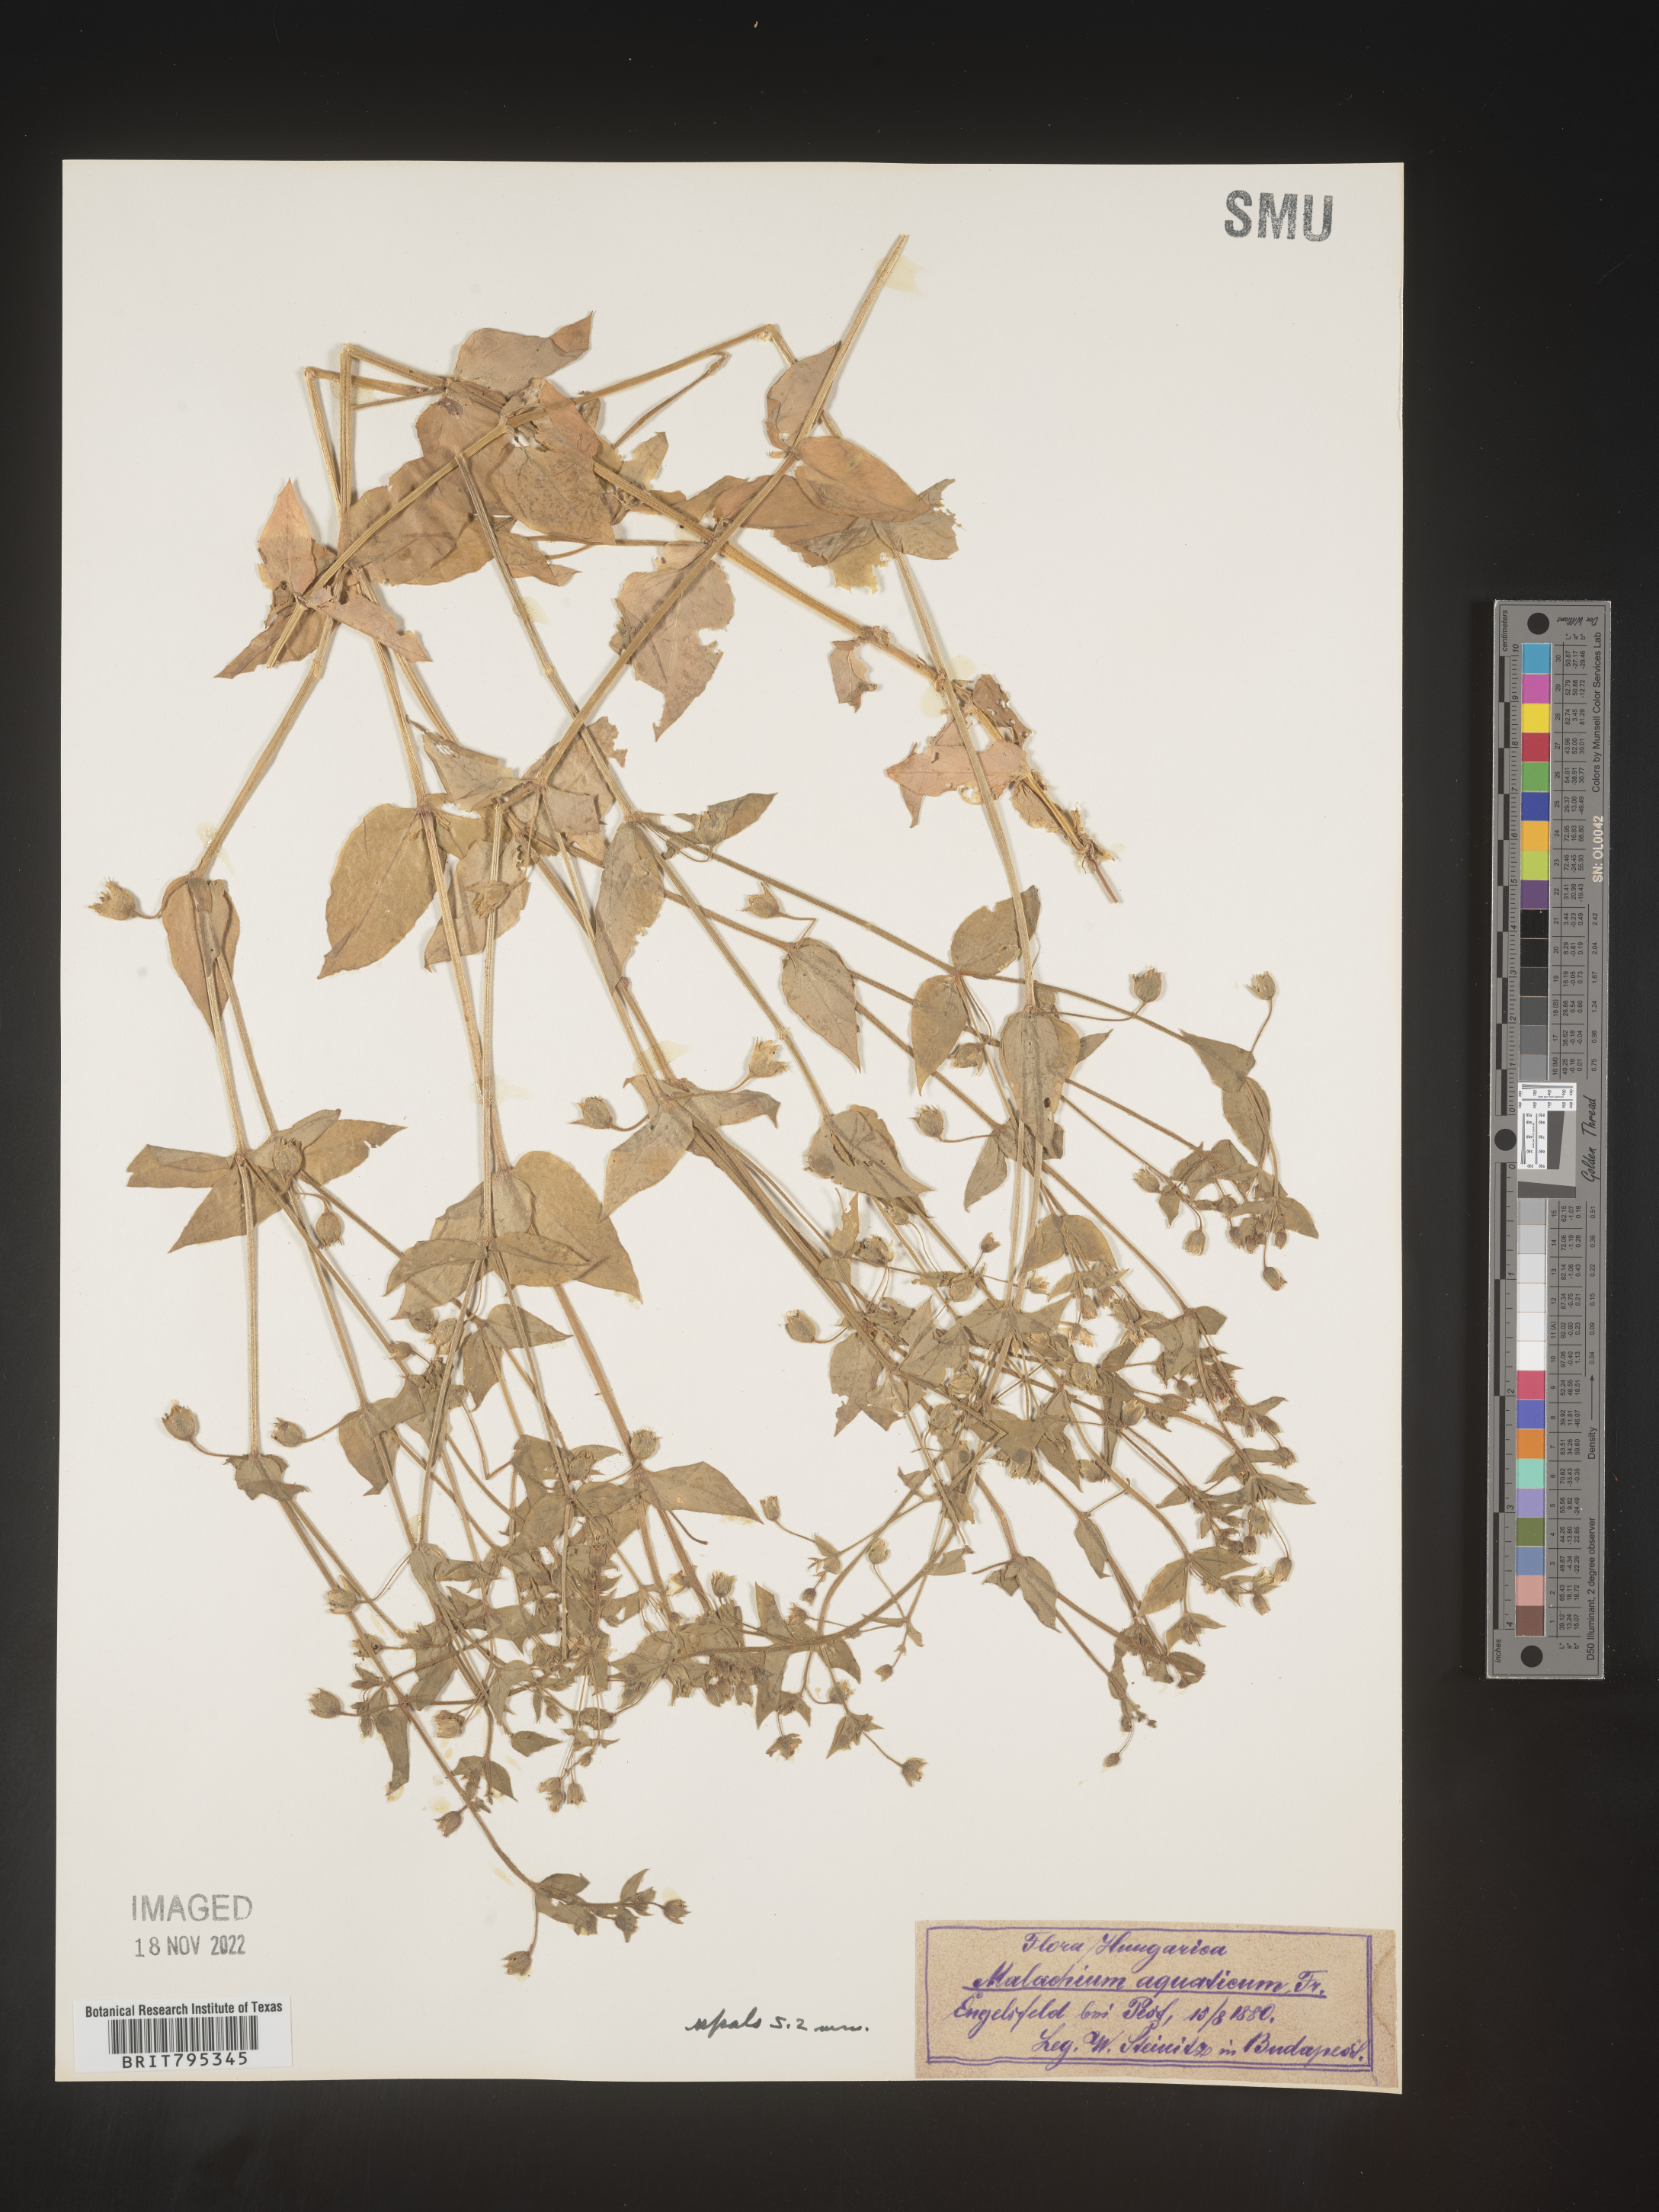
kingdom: Plantae
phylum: Tracheophyta
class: Magnoliopsida
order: Caryophyllales
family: Caryophyllaceae
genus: Stellaria
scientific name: Stellaria
